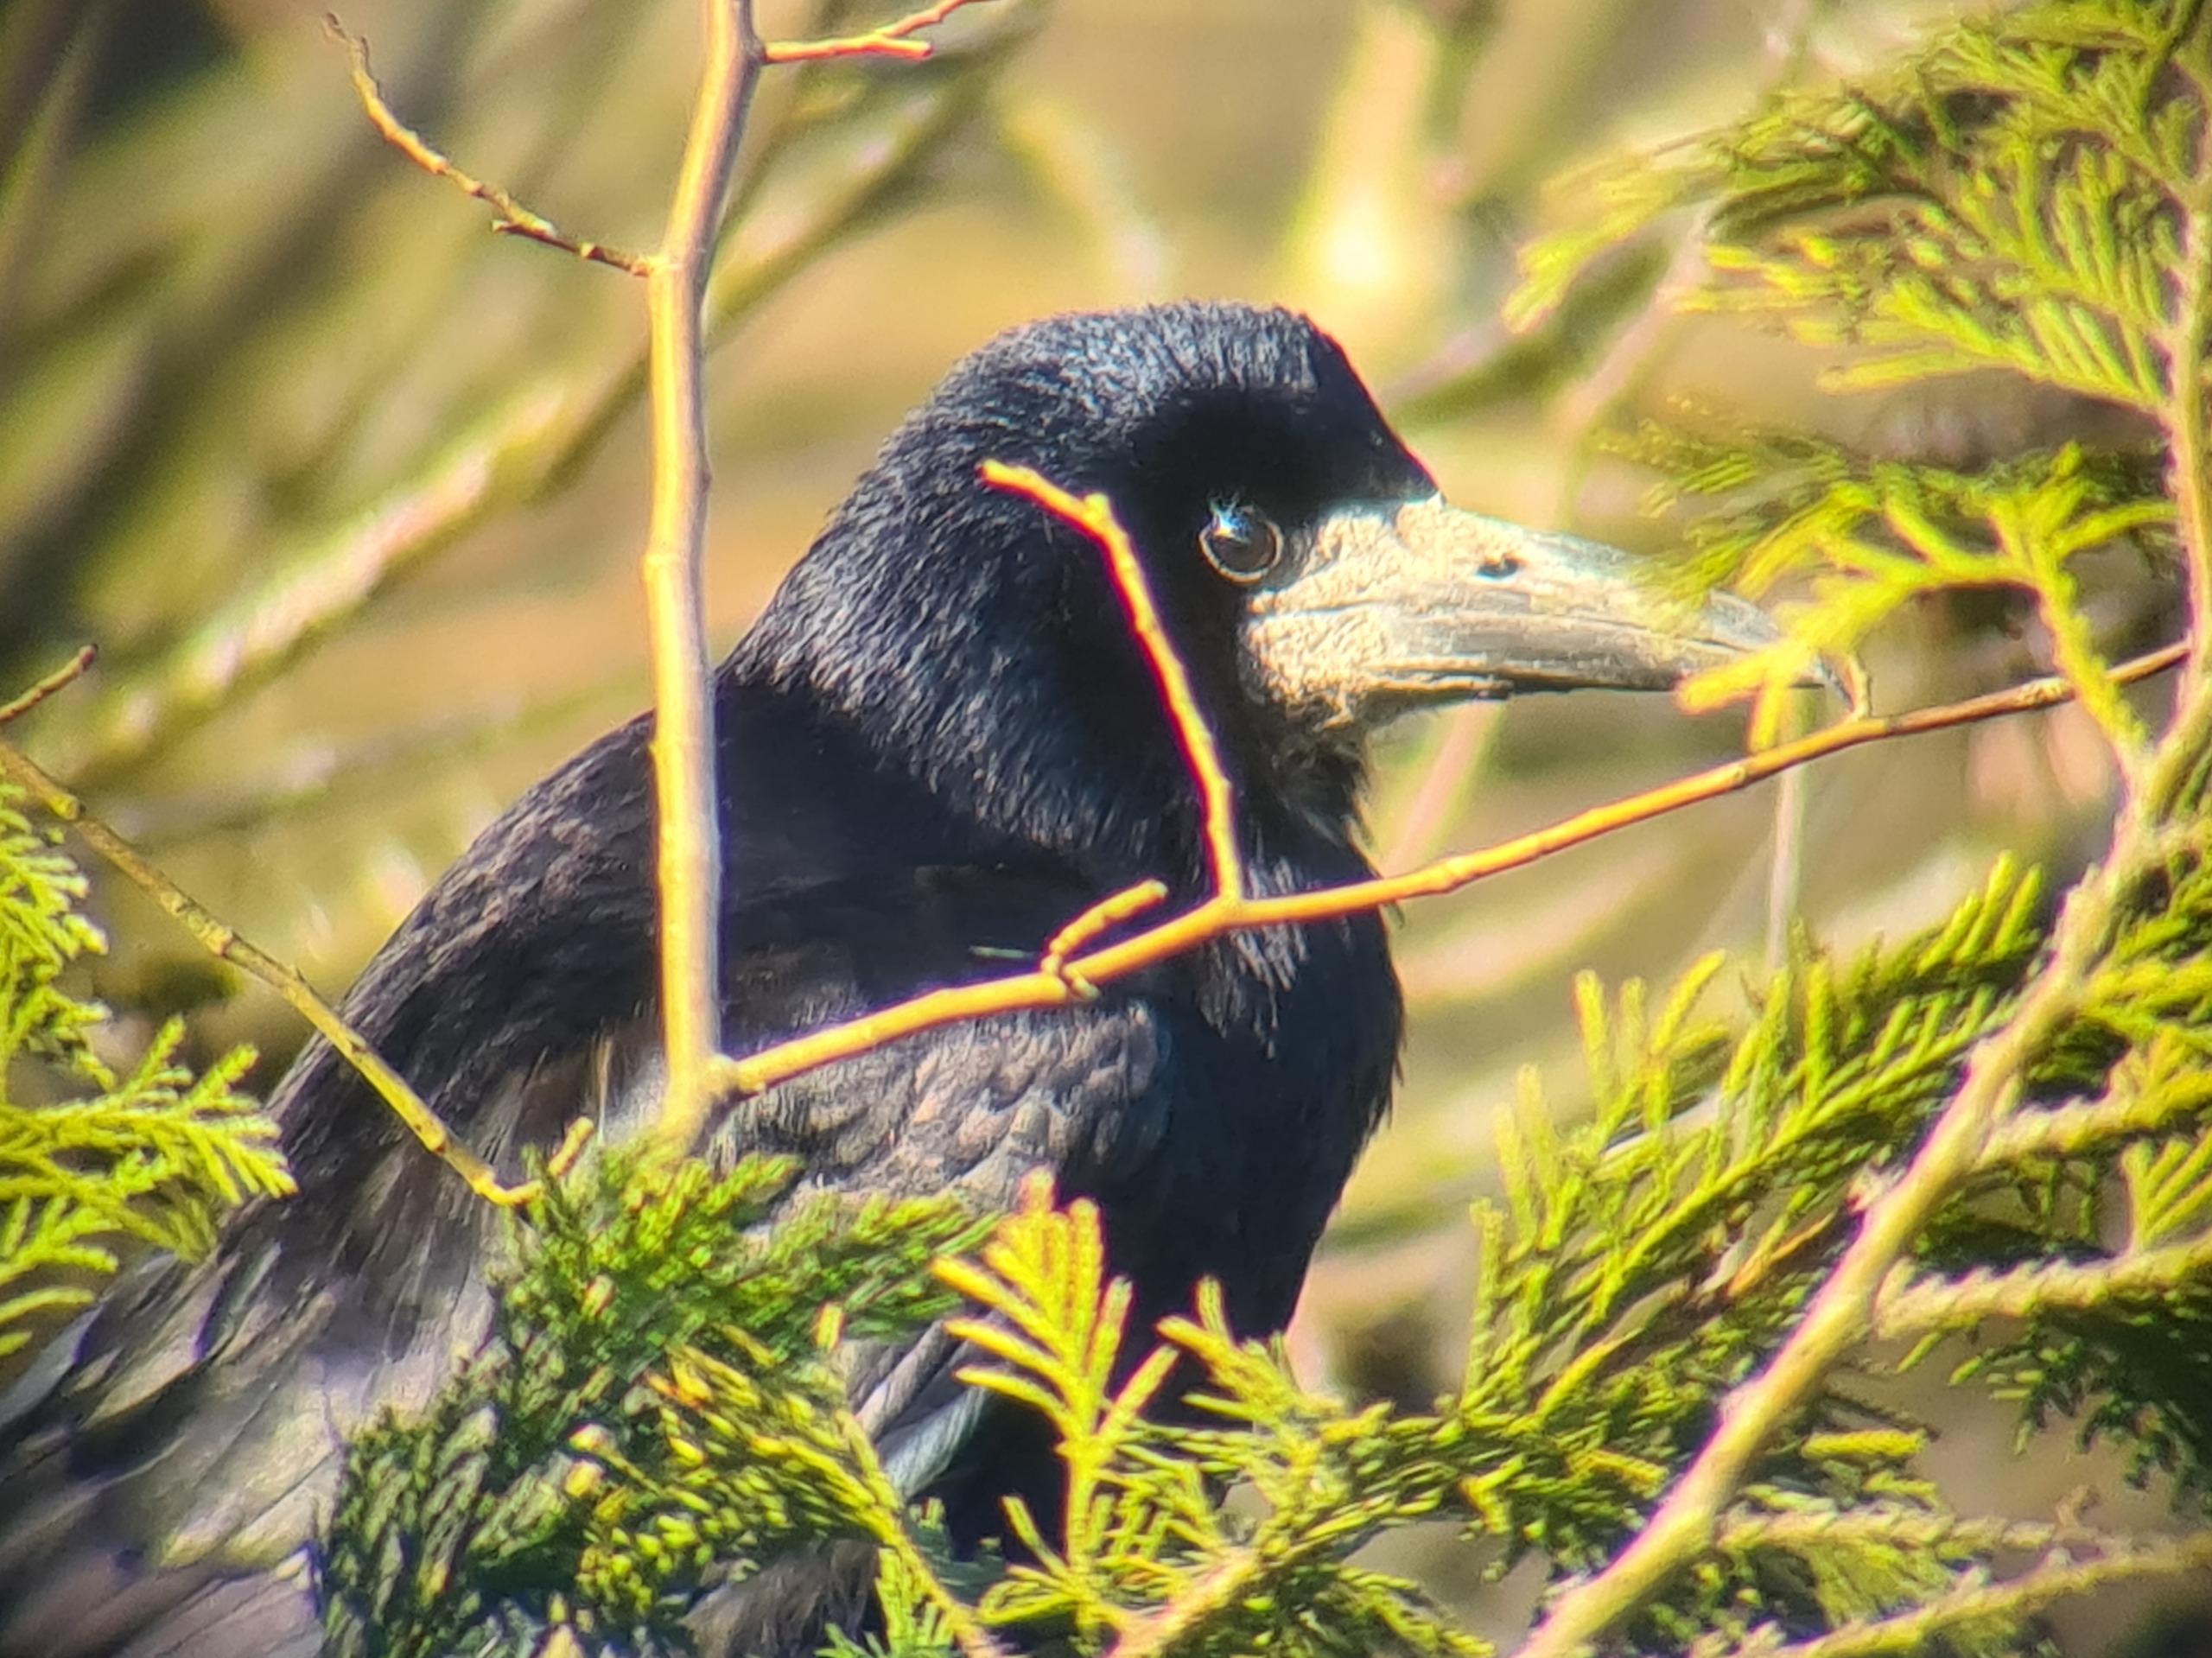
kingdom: Animalia
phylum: Chordata
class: Aves
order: Passeriformes
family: Corvidae
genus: Corvus
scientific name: Corvus frugilegus
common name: Råge
